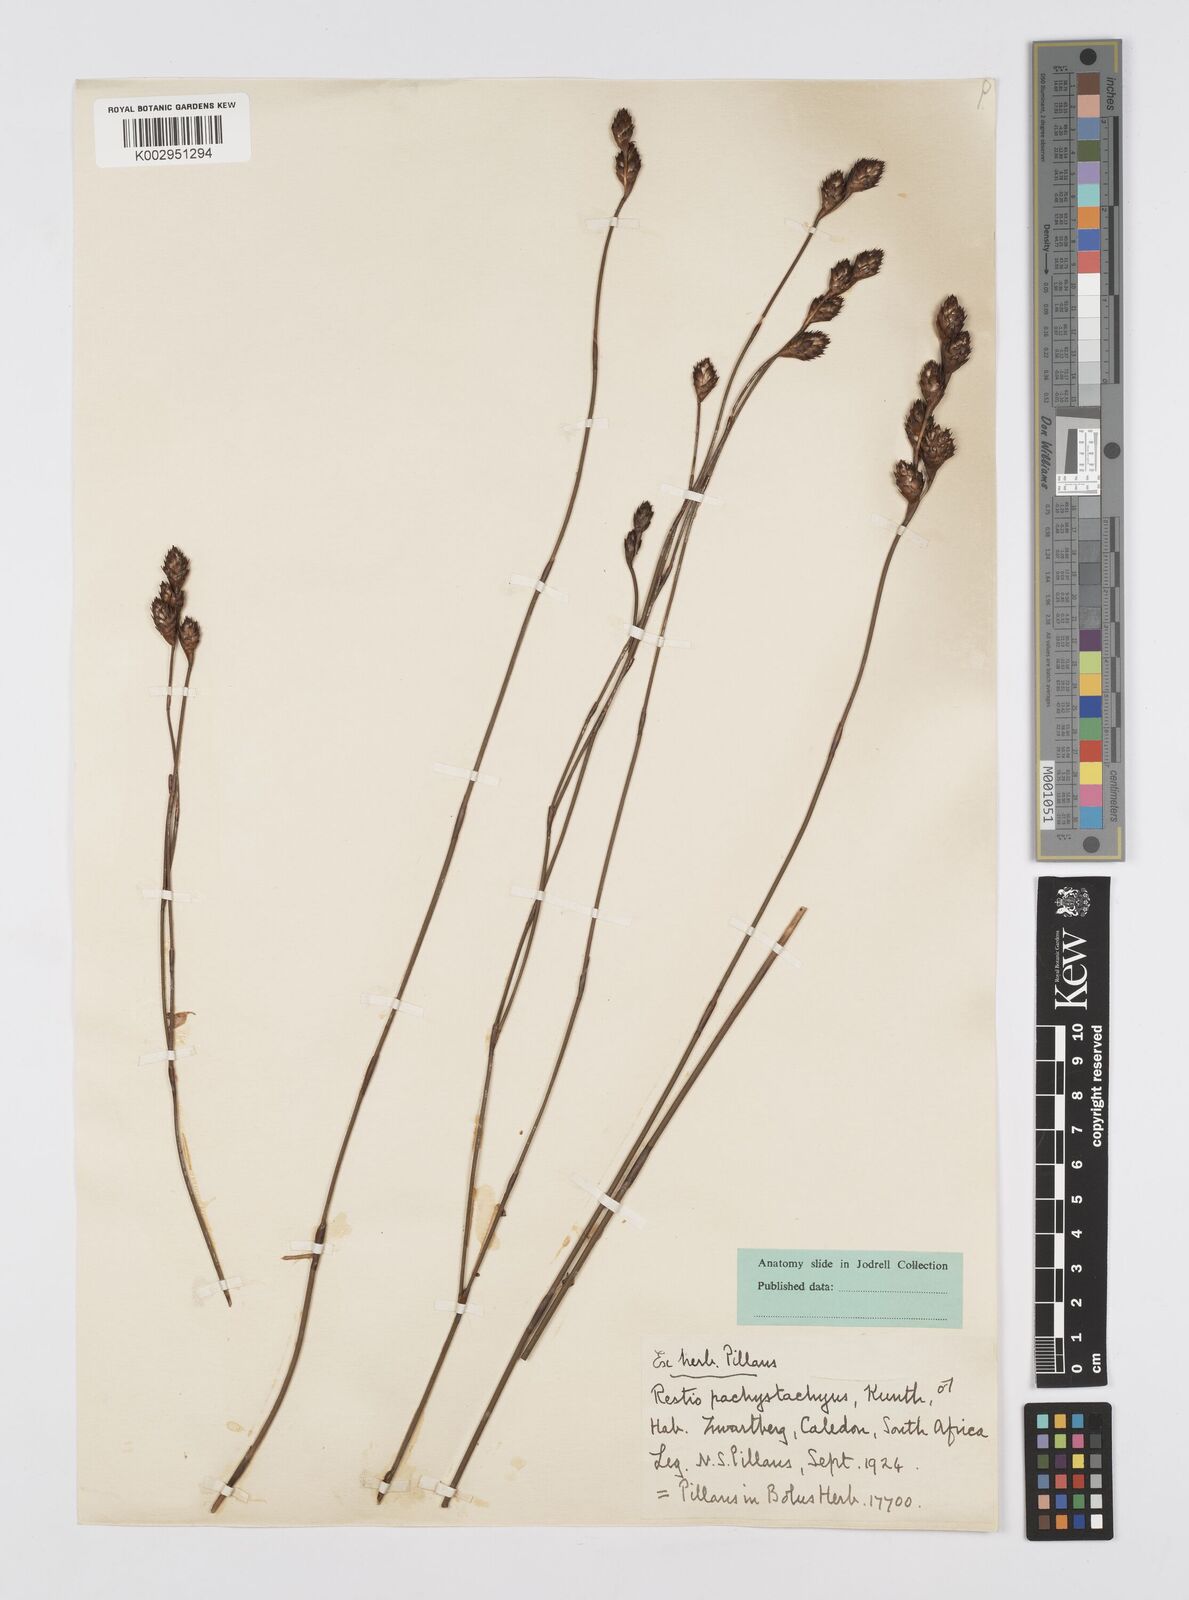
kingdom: Plantae
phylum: Tracheophyta
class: Liliopsida
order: Poales
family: Restionaceae
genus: Restio
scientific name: Restio pachystachyus
